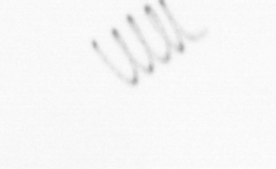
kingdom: Chromista
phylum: Ochrophyta
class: Bacillariophyceae
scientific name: Bacillariophyceae
